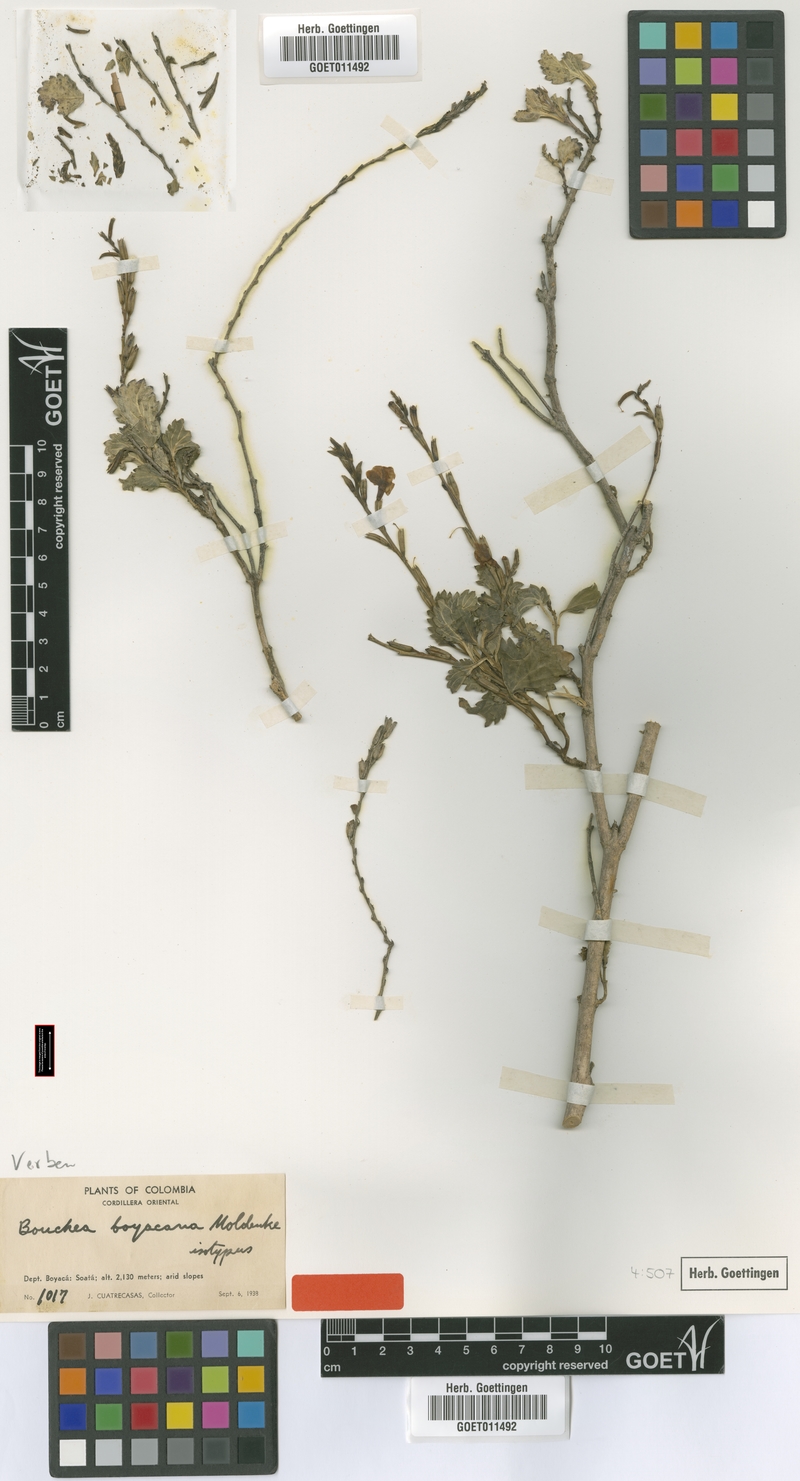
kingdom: Plantae
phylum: Tracheophyta
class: Magnoliopsida
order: Lamiales
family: Verbenaceae
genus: Bouchea
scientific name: Bouchea prismatica
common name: Vervine
